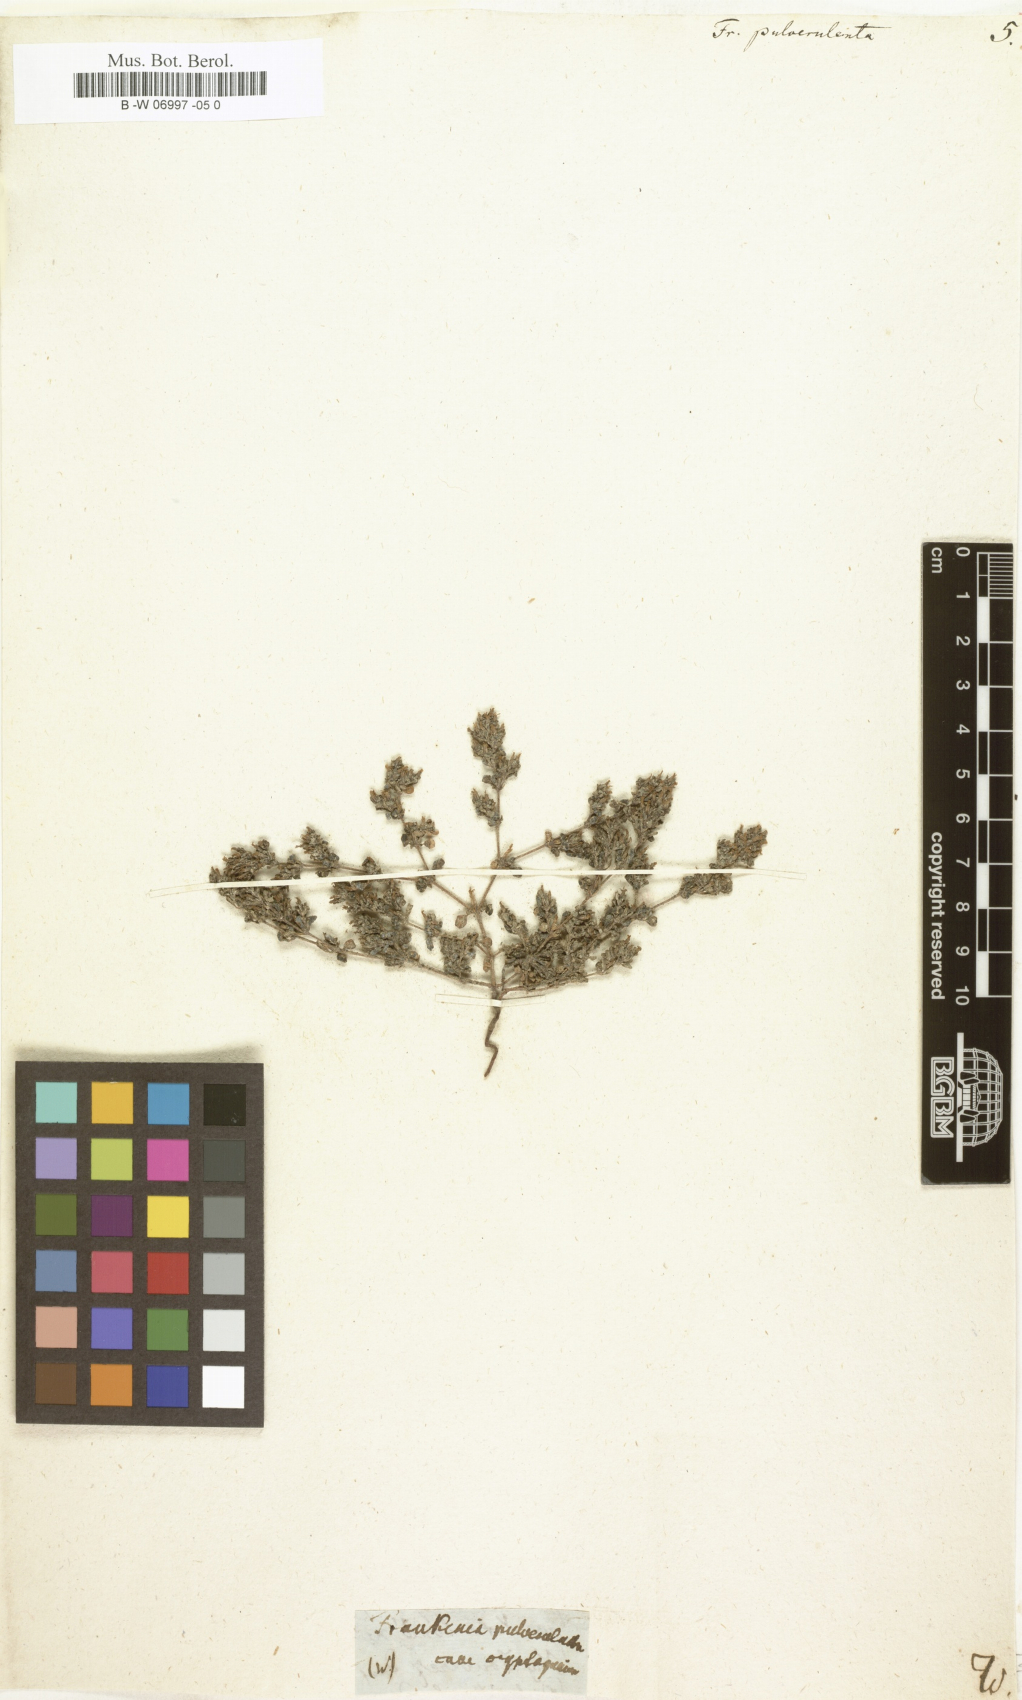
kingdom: Plantae
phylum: Tracheophyta
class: Magnoliopsida
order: Caryophyllales
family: Frankeniaceae
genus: Frankenia
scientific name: Frankenia pulverulenta
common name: European seaheath
